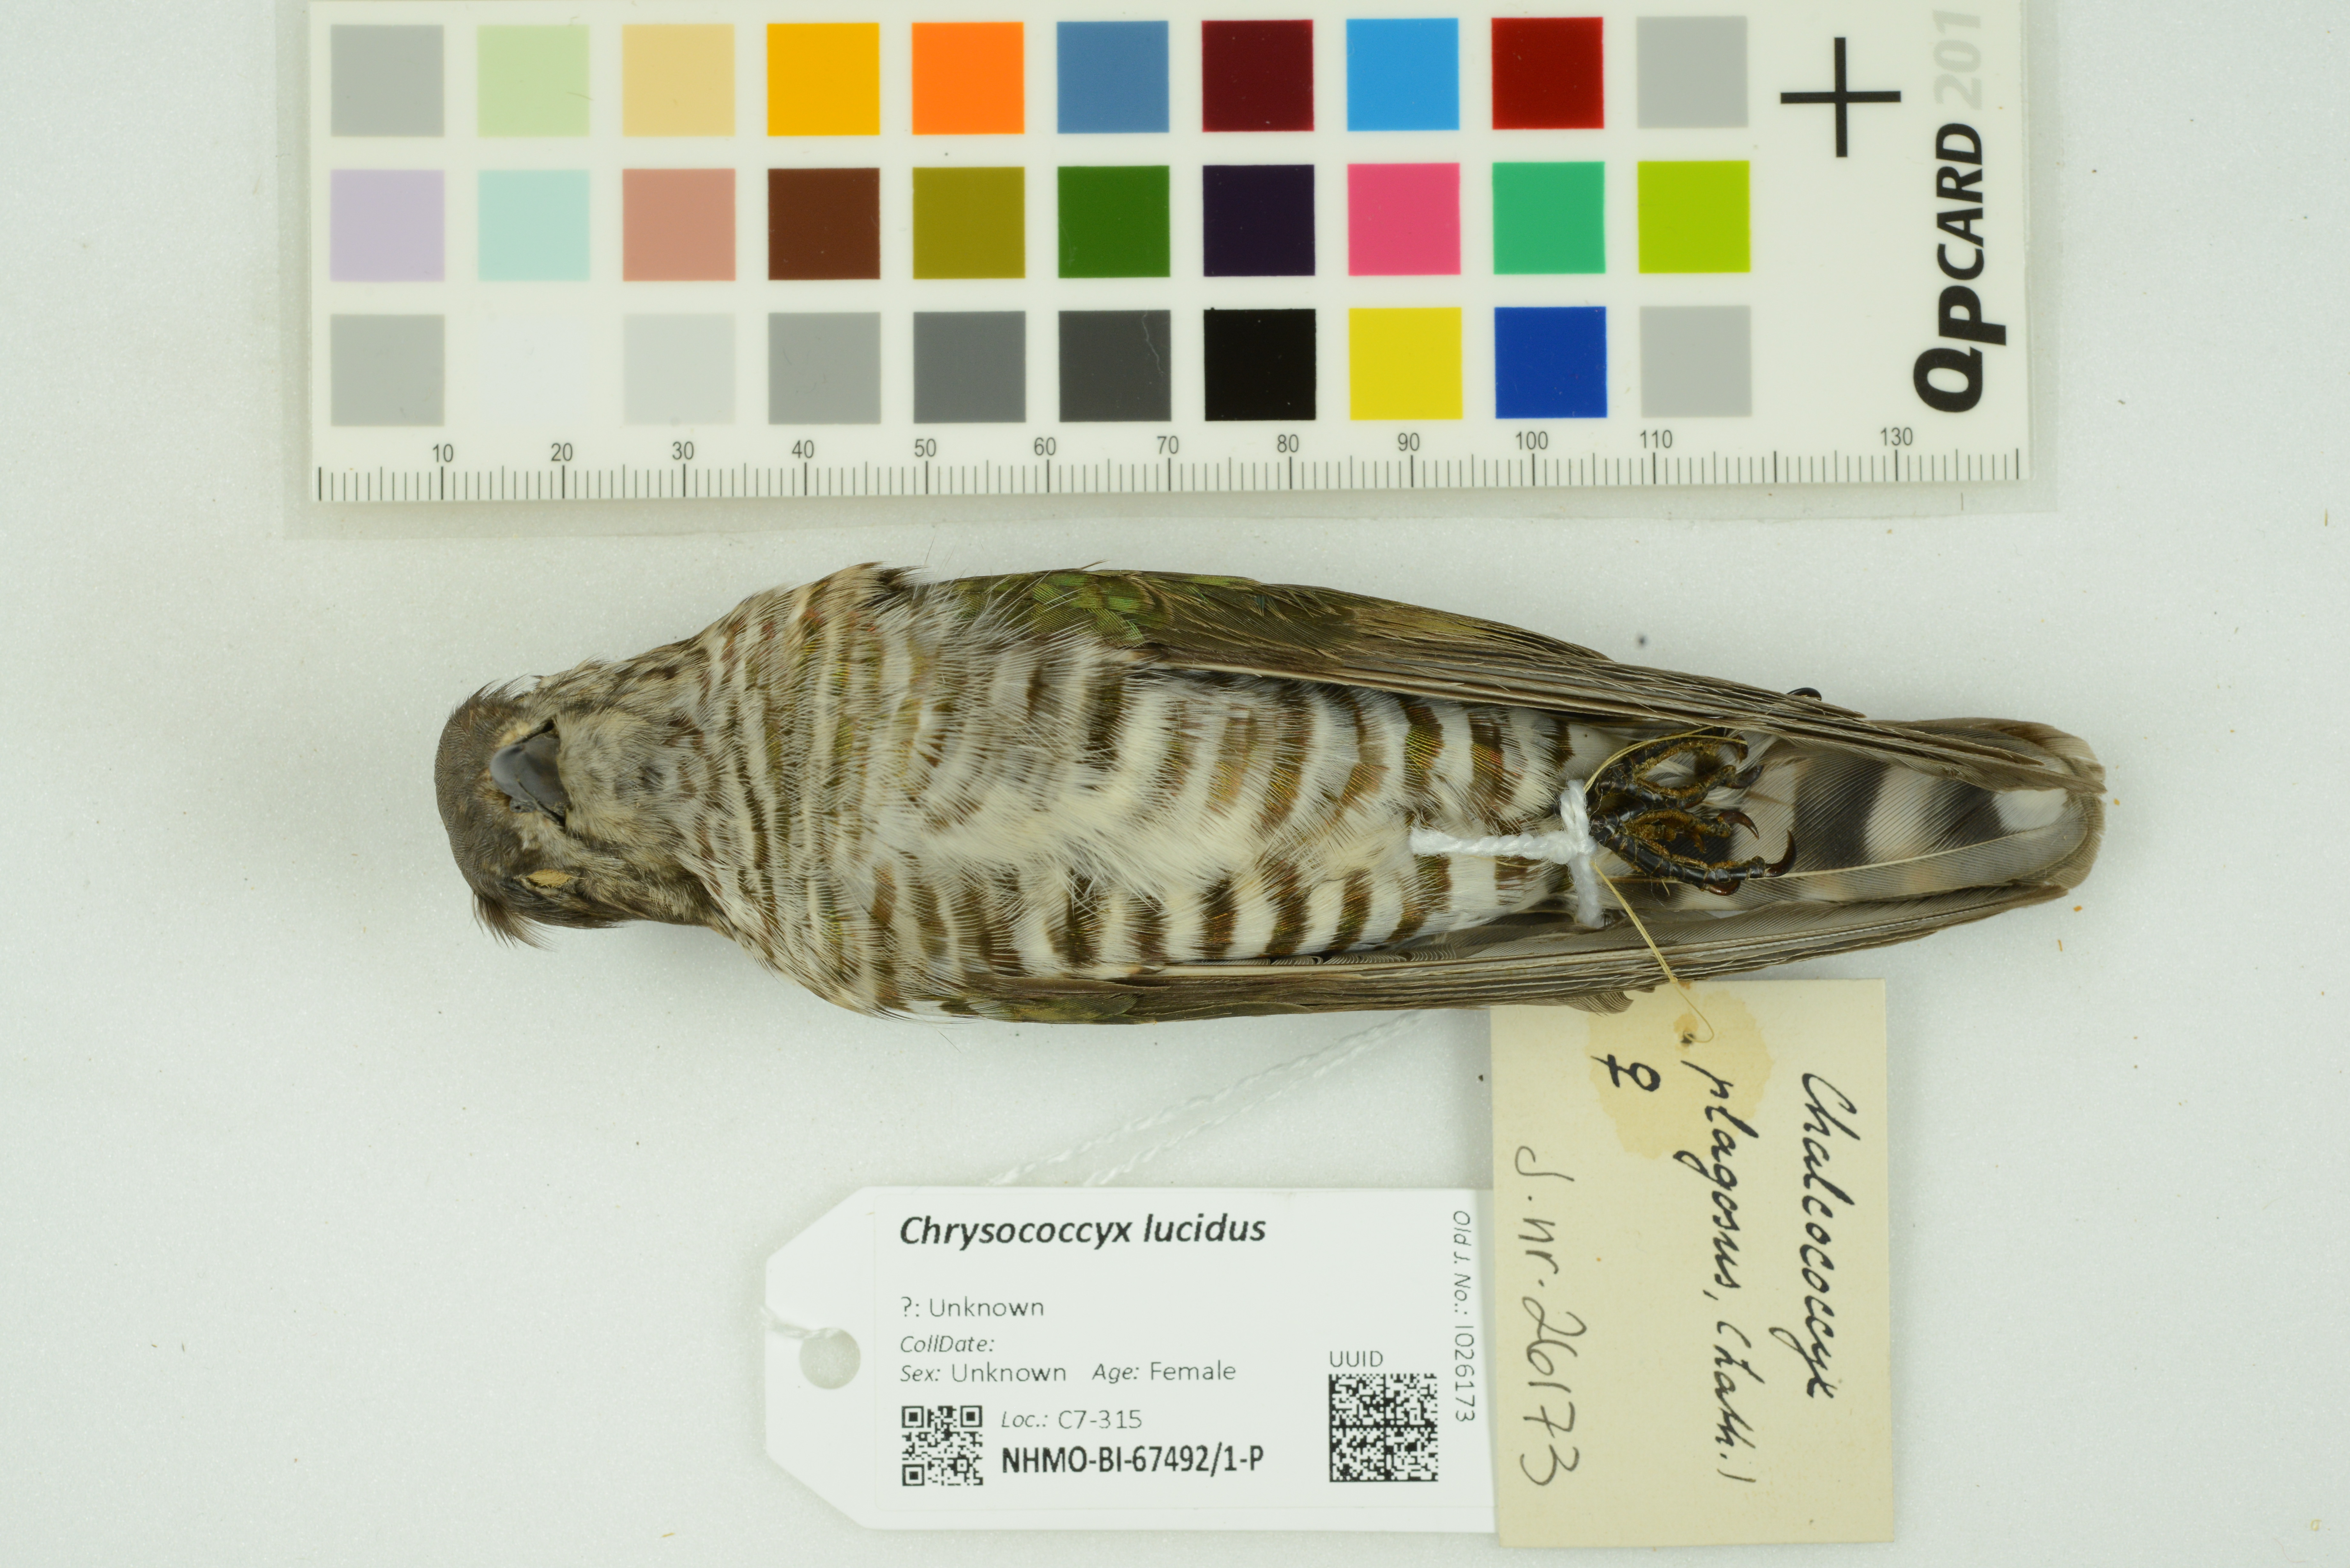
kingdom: Animalia
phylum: Chordata
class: Aves
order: Cuculiformes
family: Cuculidae
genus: Chrysococcyx
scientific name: Chrysococcyx lucidus
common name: Shining bronze cuckoo
